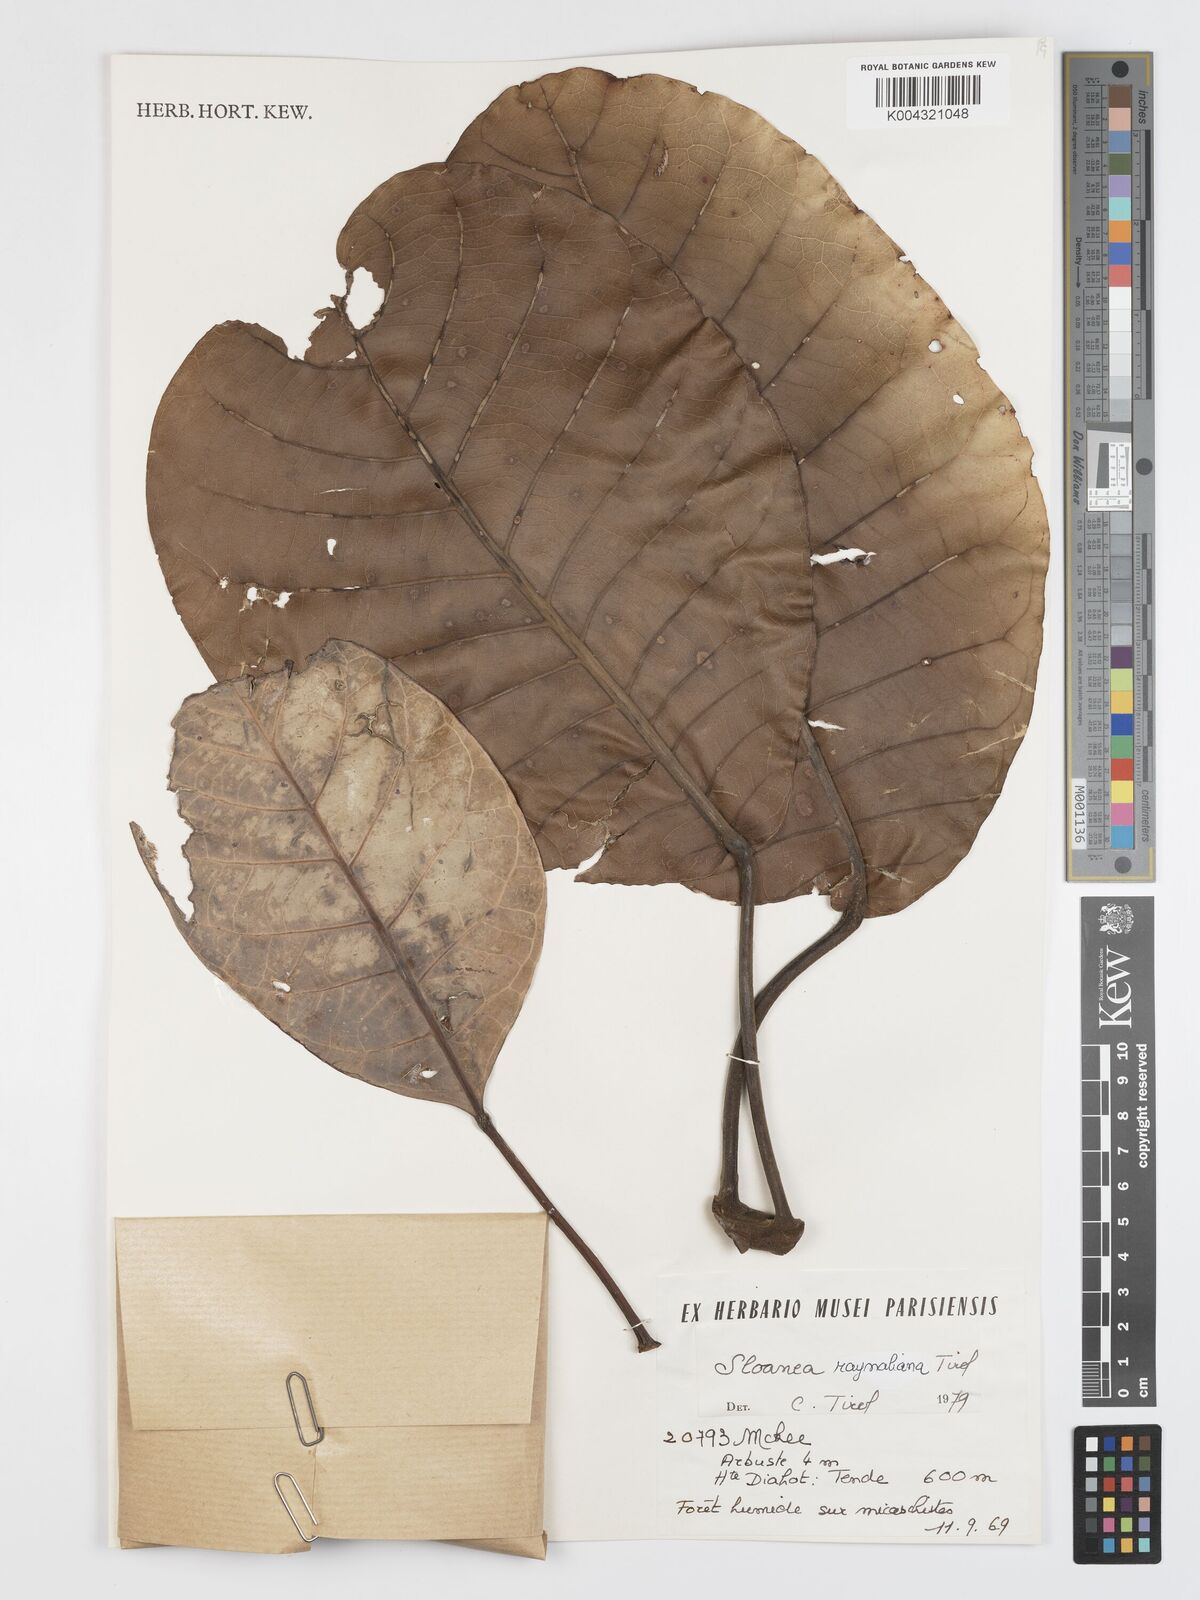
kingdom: Plantae
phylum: Tracheophyta
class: Magnoliopsida
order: Oxalidales
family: Elaeocarpaceae
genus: Sloanea
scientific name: Sloanea raynaliana
